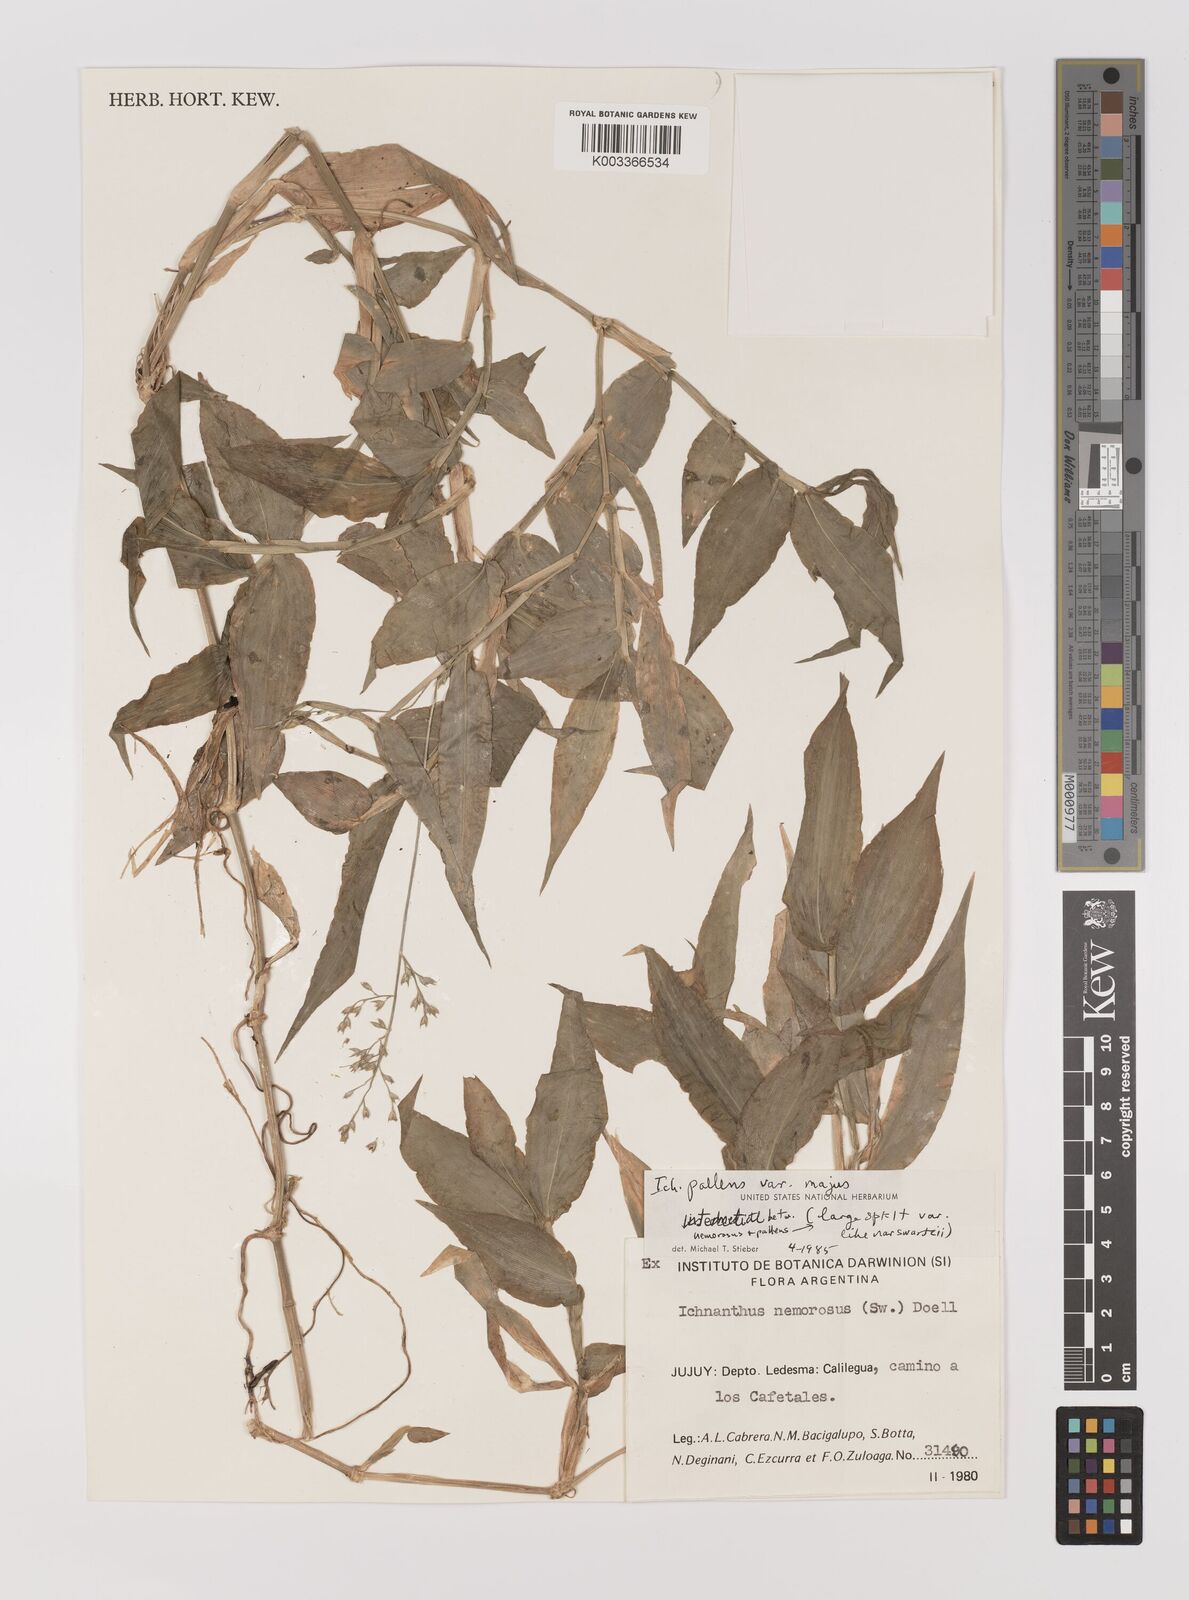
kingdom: Plantae
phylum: Tracheophyta
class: Liliopsida
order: Poales
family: Poaceae
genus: Ichnanthus
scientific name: Ichnanthus pallens
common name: Water grass
